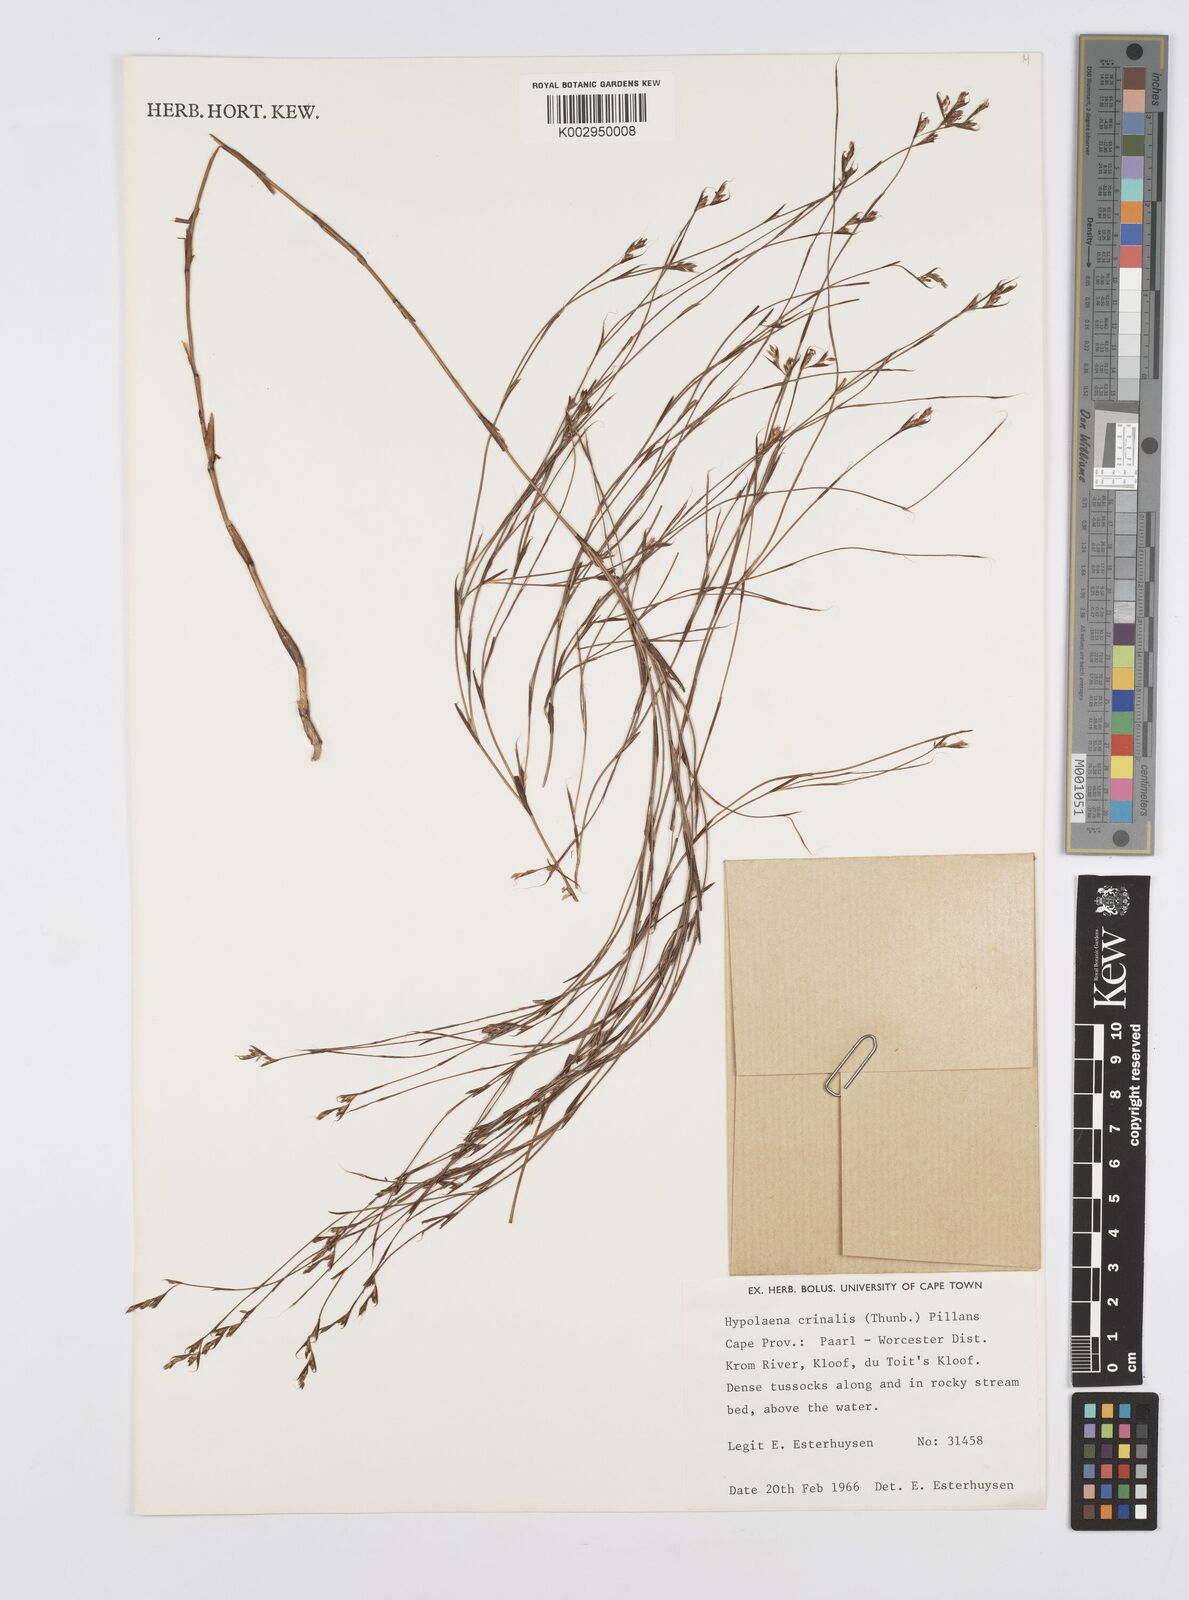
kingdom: Plantae
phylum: Tracheophyta
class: Liliopsida
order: Poales
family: Restionaceae
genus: Anthochortus
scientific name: Anthochortus crinalis
